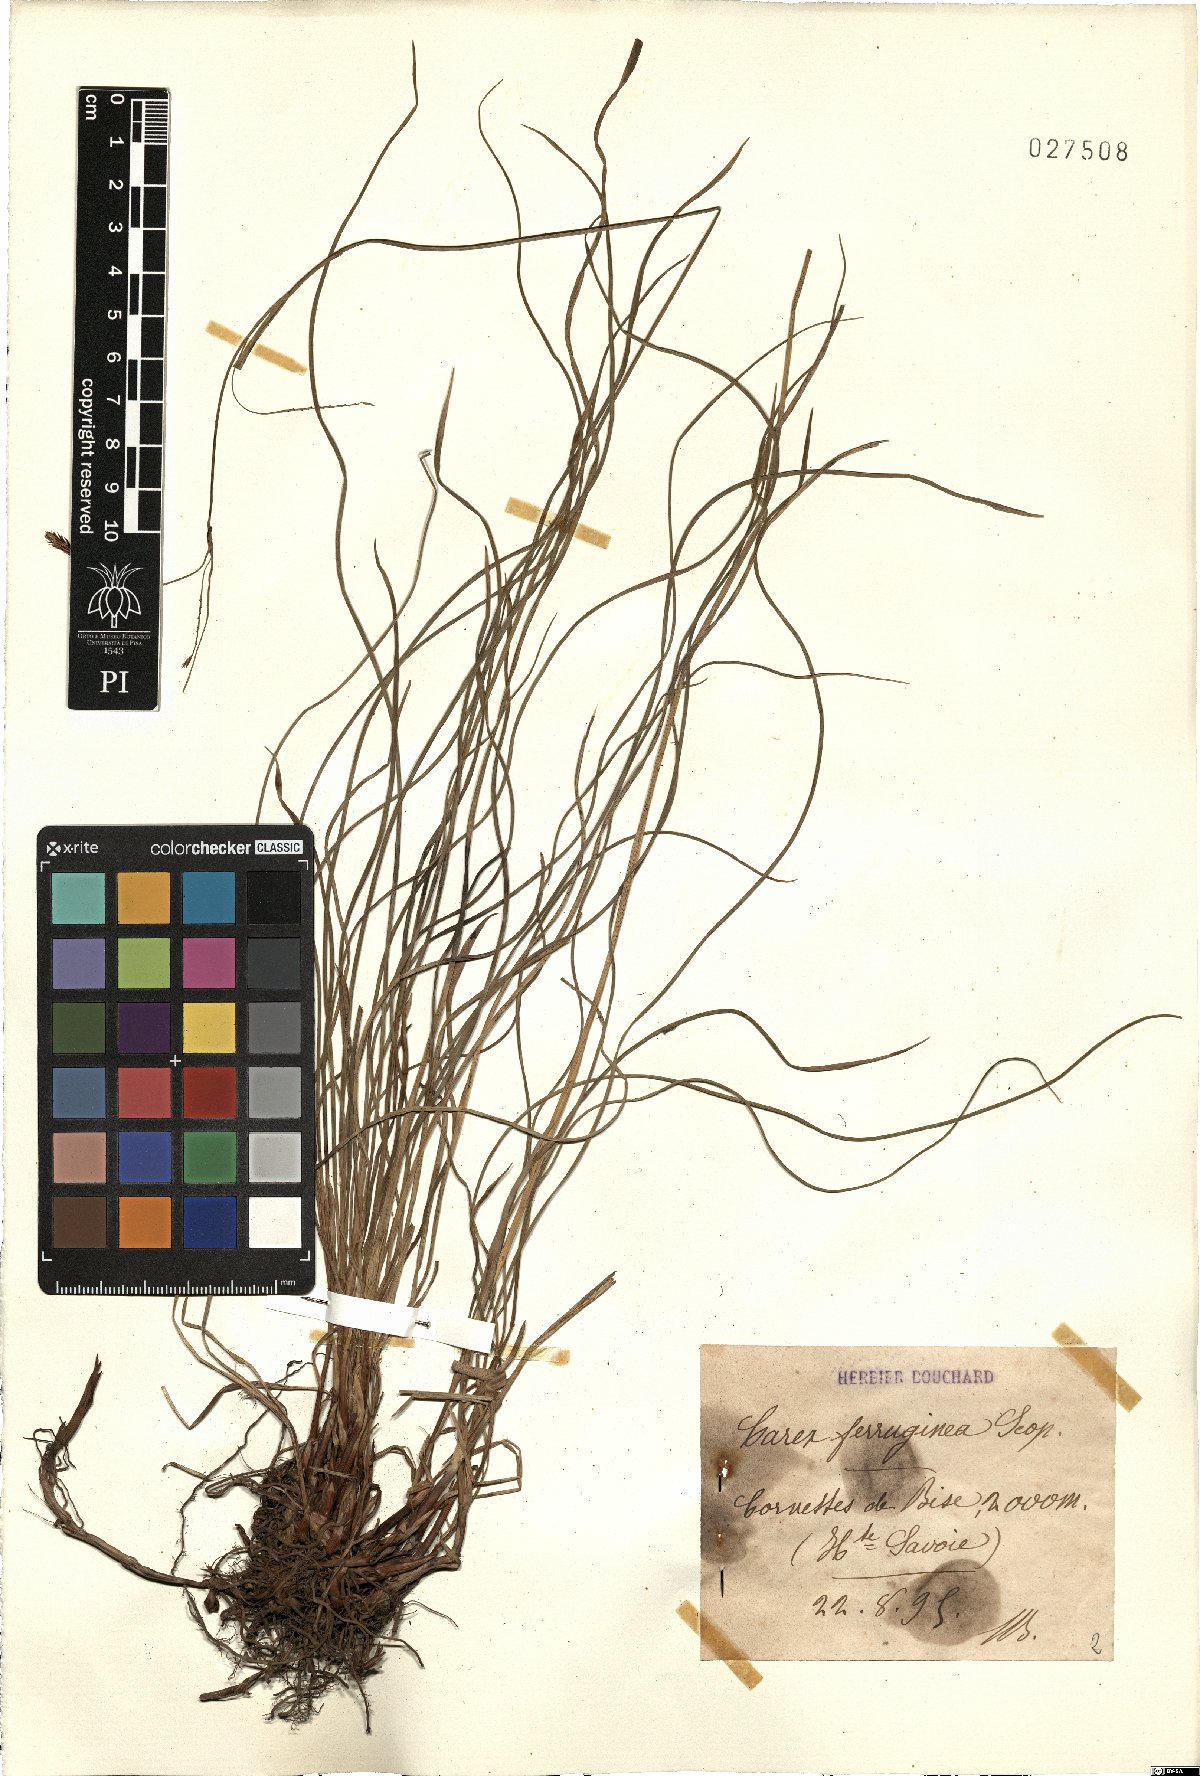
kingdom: Plantae
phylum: Tracheophyta
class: Liliopsida
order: Poales
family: Cyperaceae
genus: Carex
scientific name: Carex ferruginea
